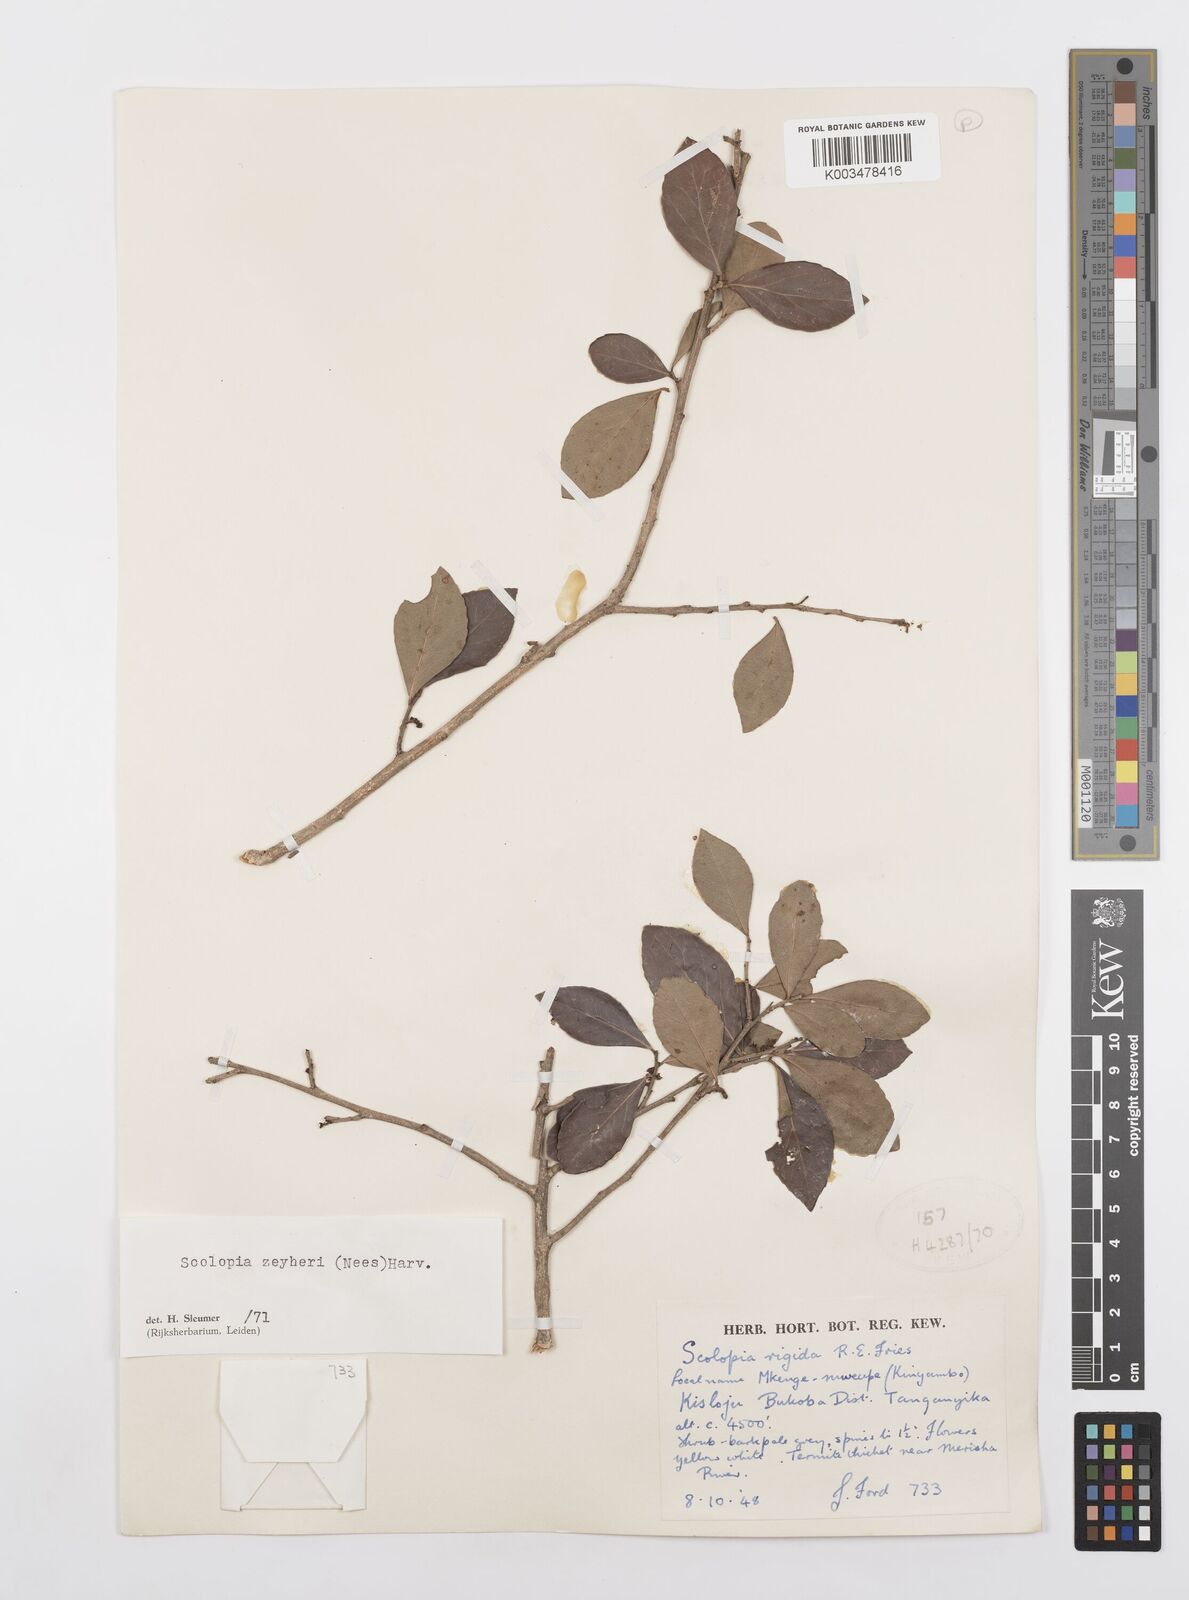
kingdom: Plantae
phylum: Tracheophyta
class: Magnoliopsida
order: Malpighiales
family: Salicaceae
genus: Scolopia
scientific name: Scolopia zeyheri
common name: Thorn pear
